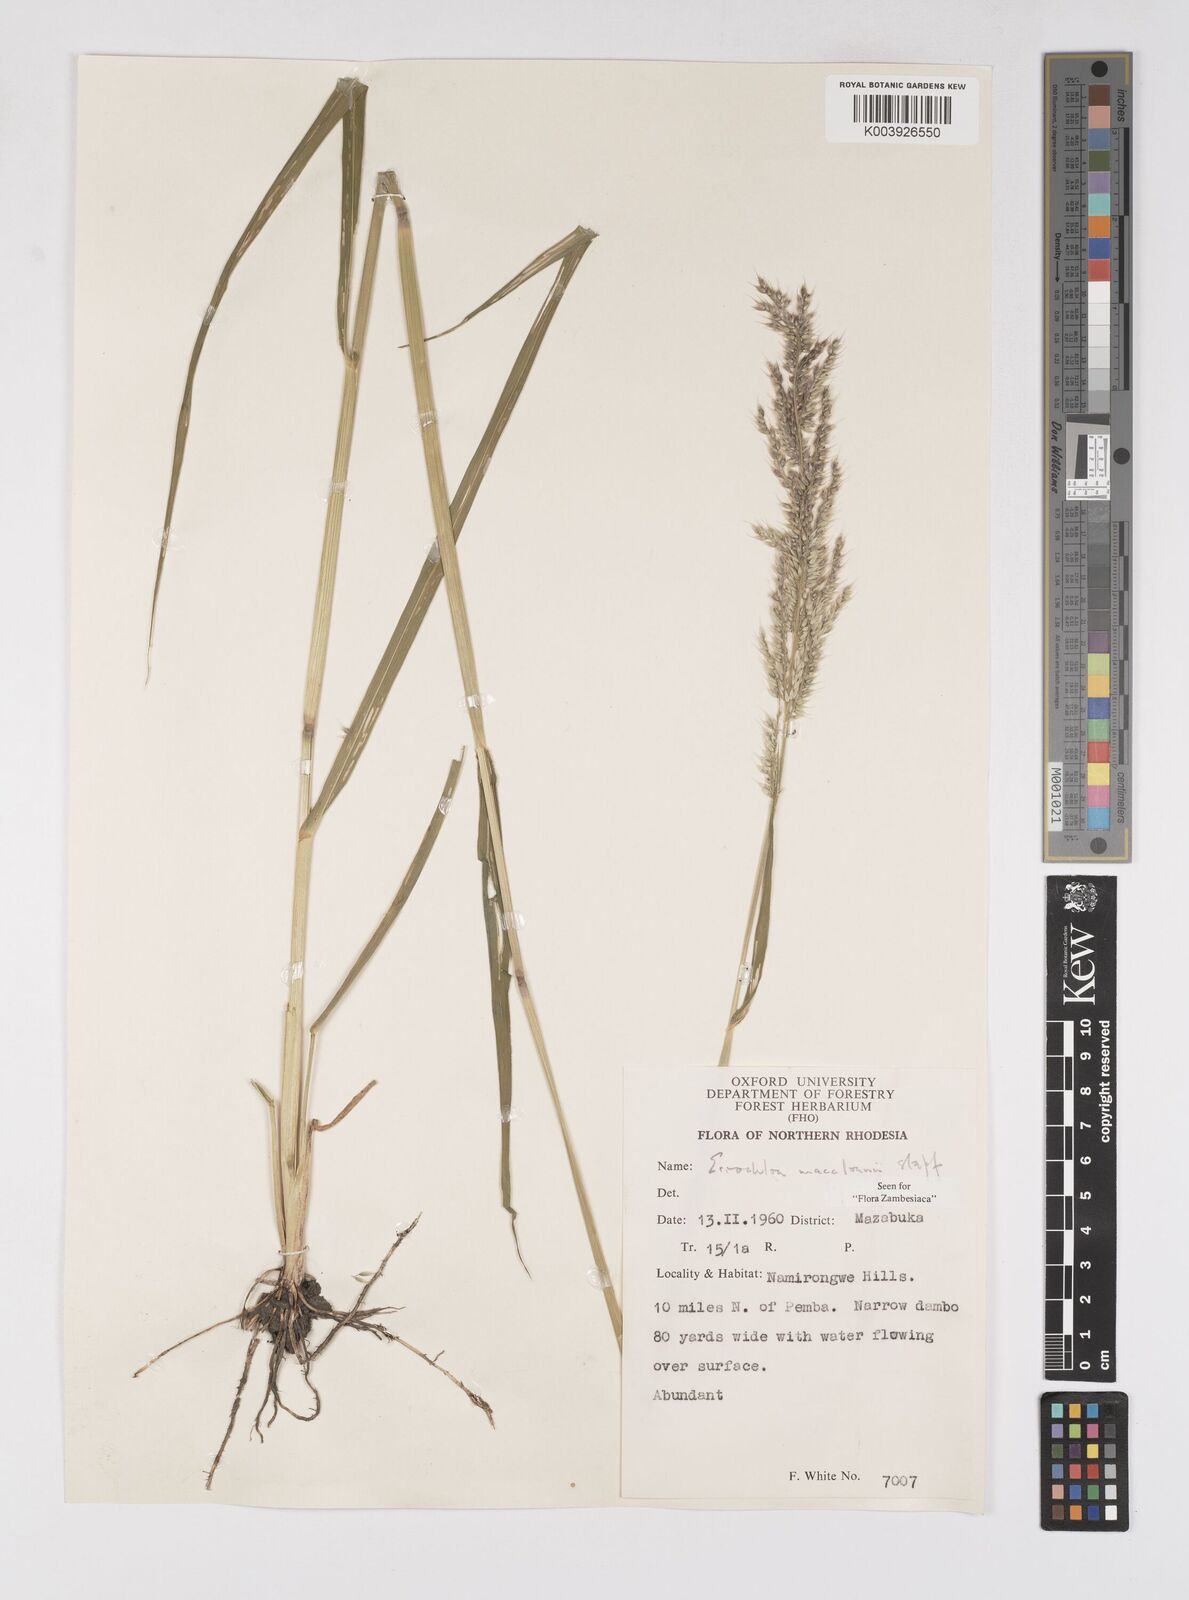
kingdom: Plantae
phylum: Tracheophyta
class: Liliopsida
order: Poales
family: Poaceae
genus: Eriochloa
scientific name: Eriochloa macclounii
